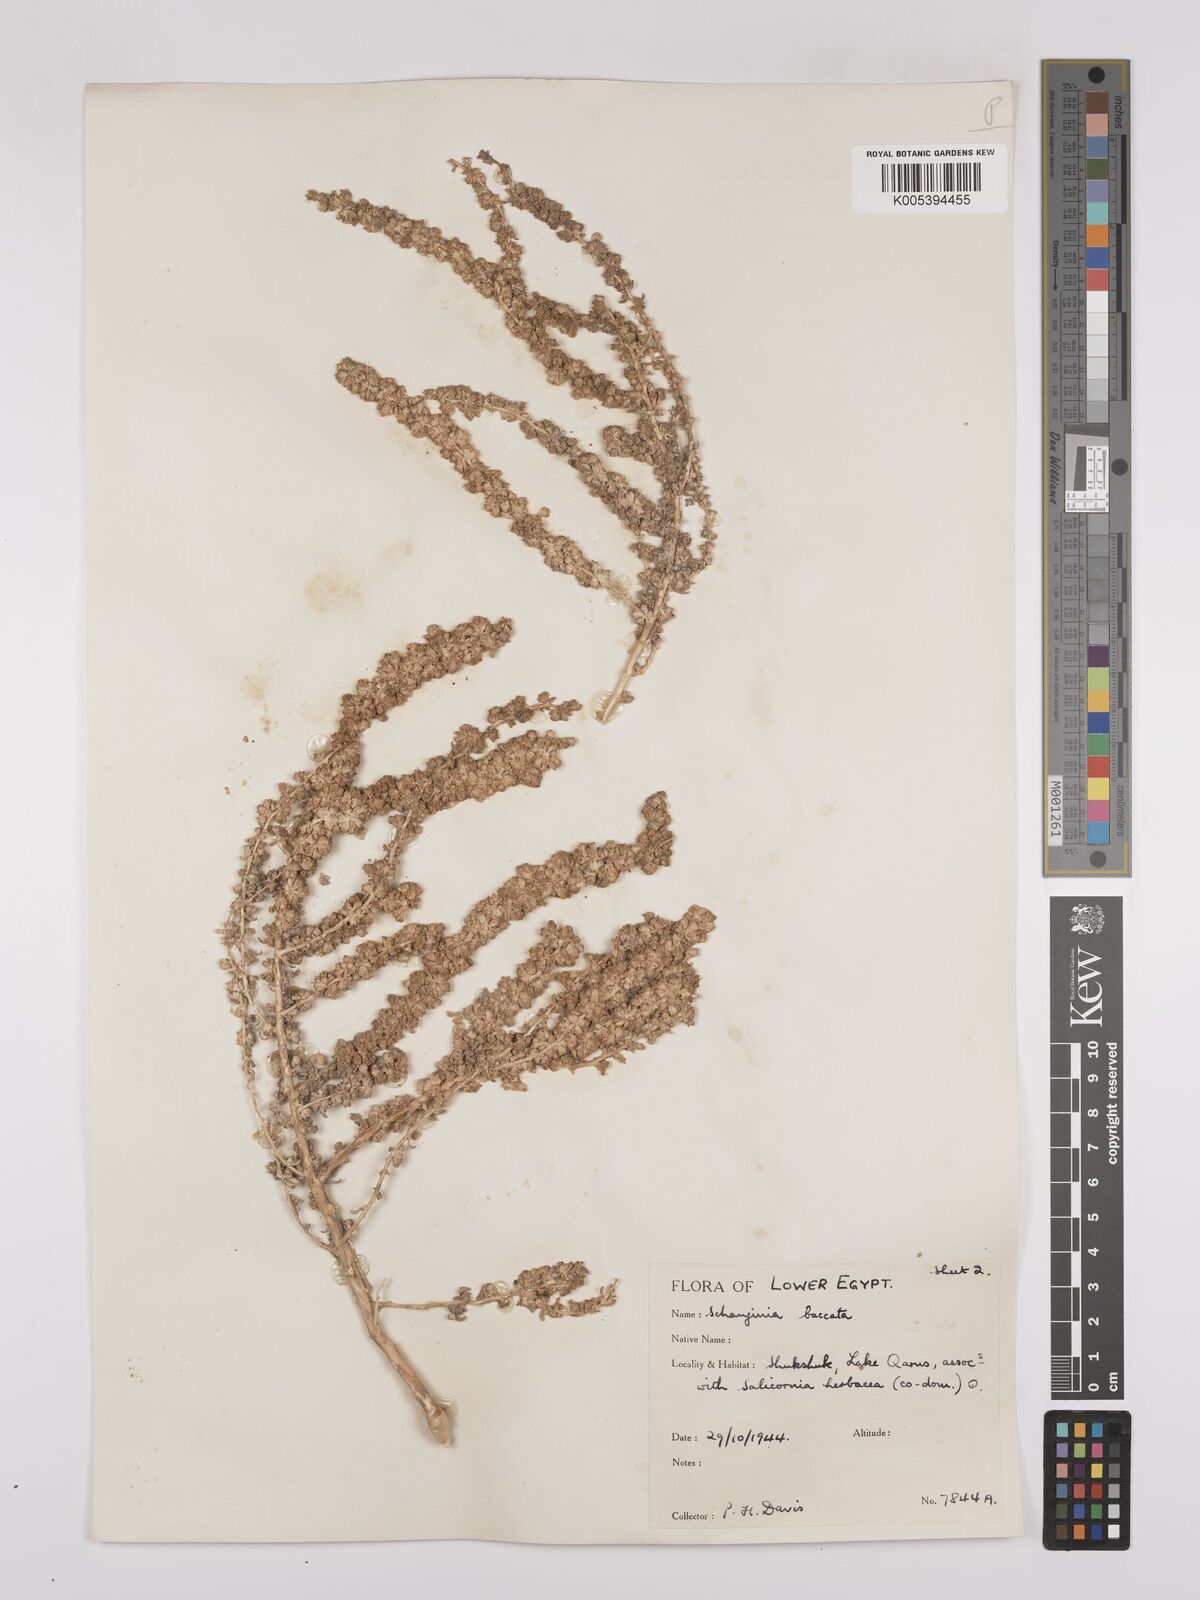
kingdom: Plantae
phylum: Tracheophyta
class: Magnoliopsida
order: Caryophyllales
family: Amaranthaceae
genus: Suaeda
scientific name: Suaeda aegyptiaca
